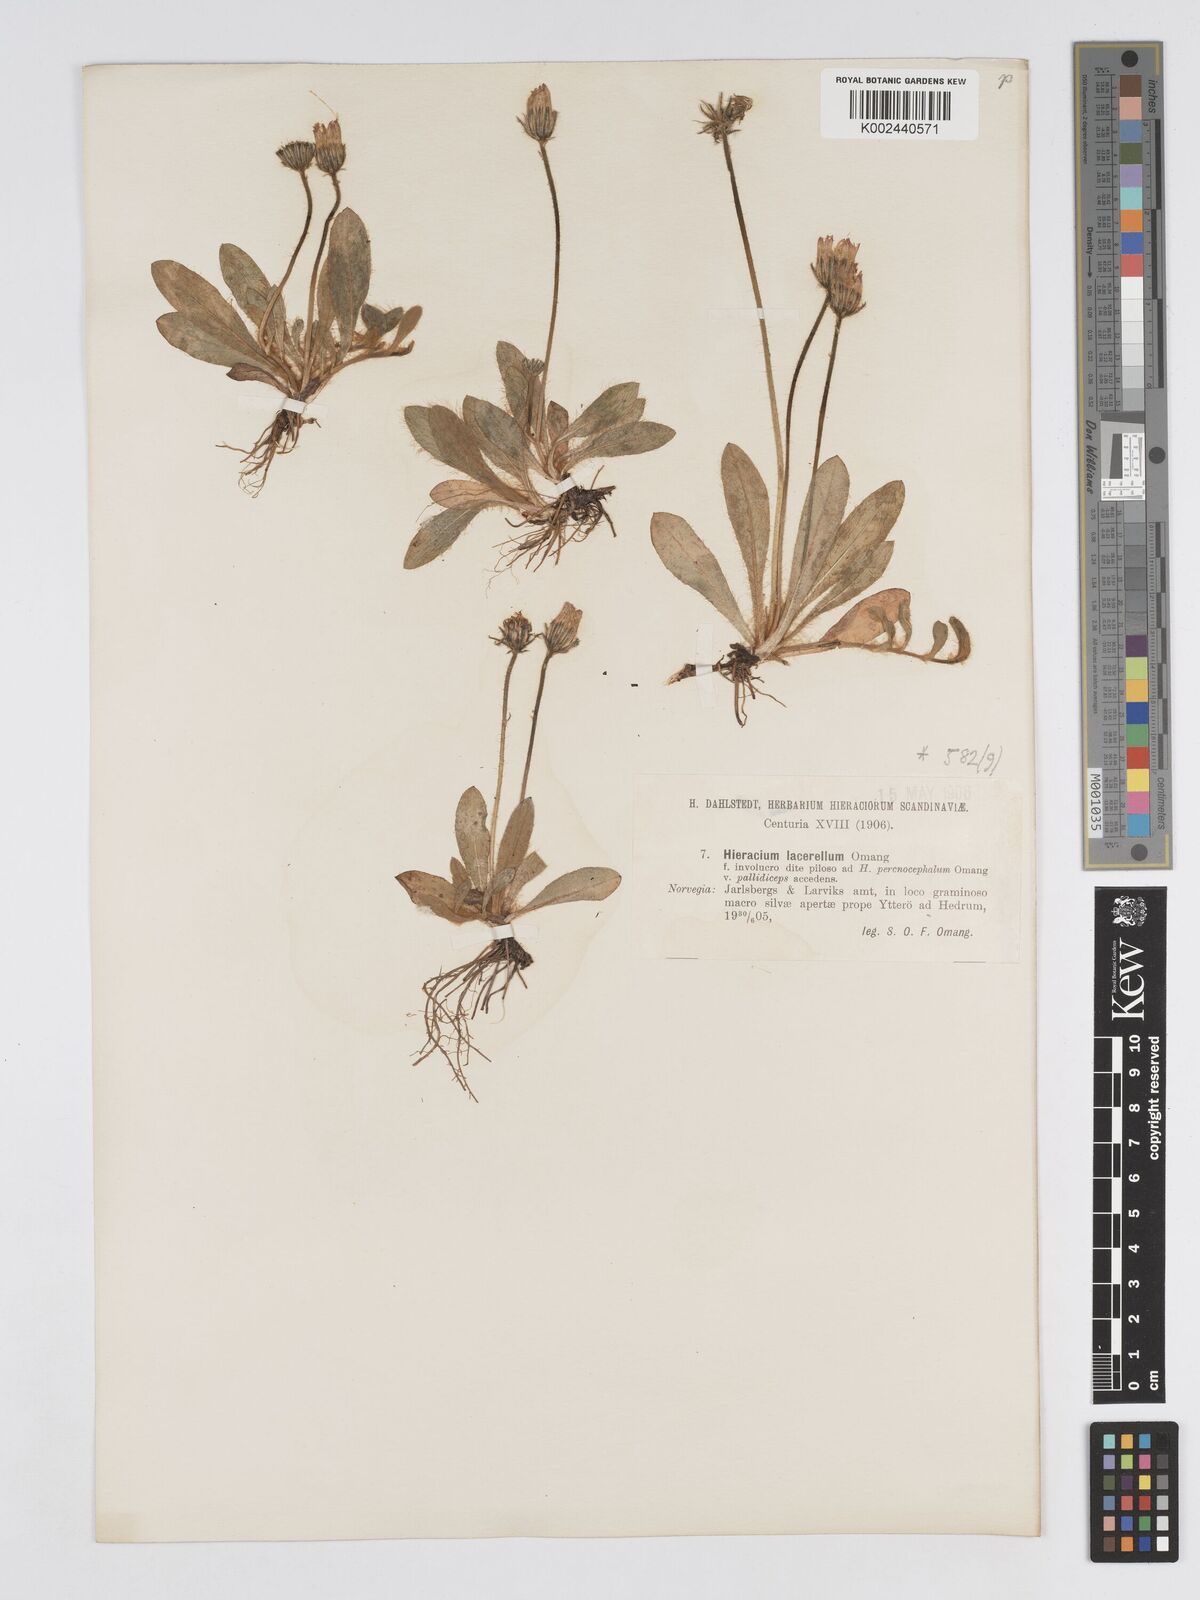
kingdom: Plantae
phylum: Tracheophyta
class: Magnoliopsida
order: Asterales
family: Asteraceae
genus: Pilosella
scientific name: Pilosella longisquama
